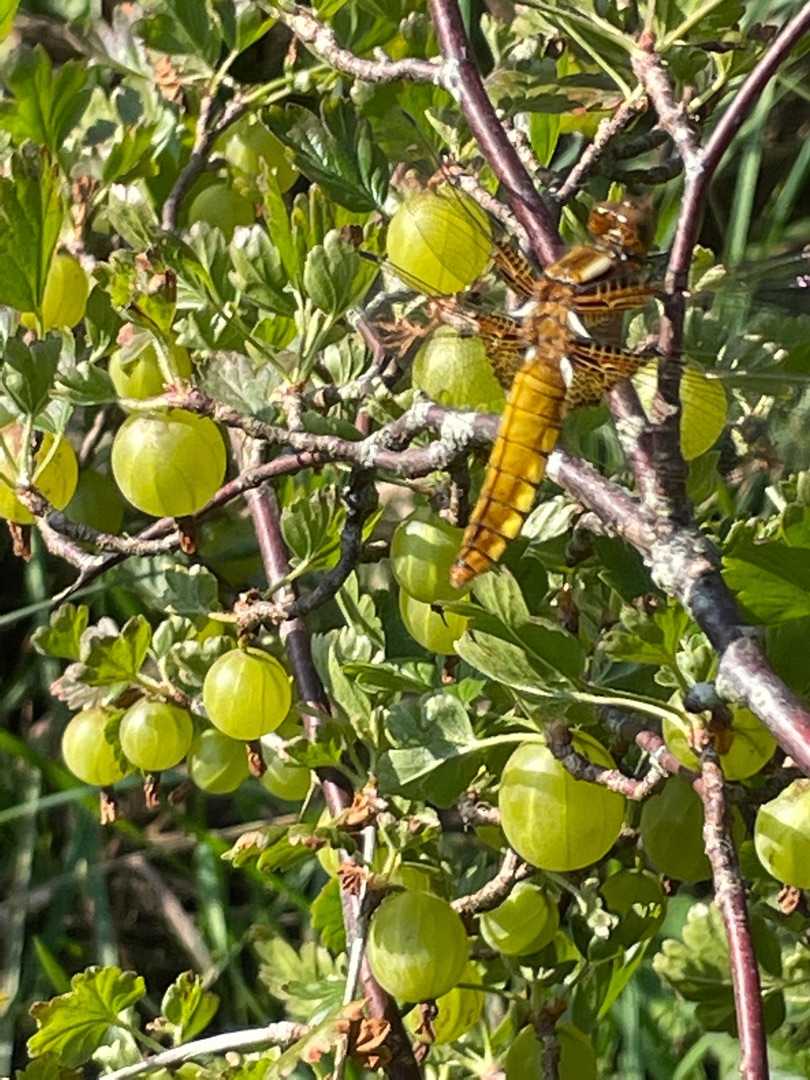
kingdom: Animalia
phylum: Arthropoda
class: Insecta
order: Odonata
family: Libellulidae
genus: Libellula
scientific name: Libellula depressa
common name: Blå libel
